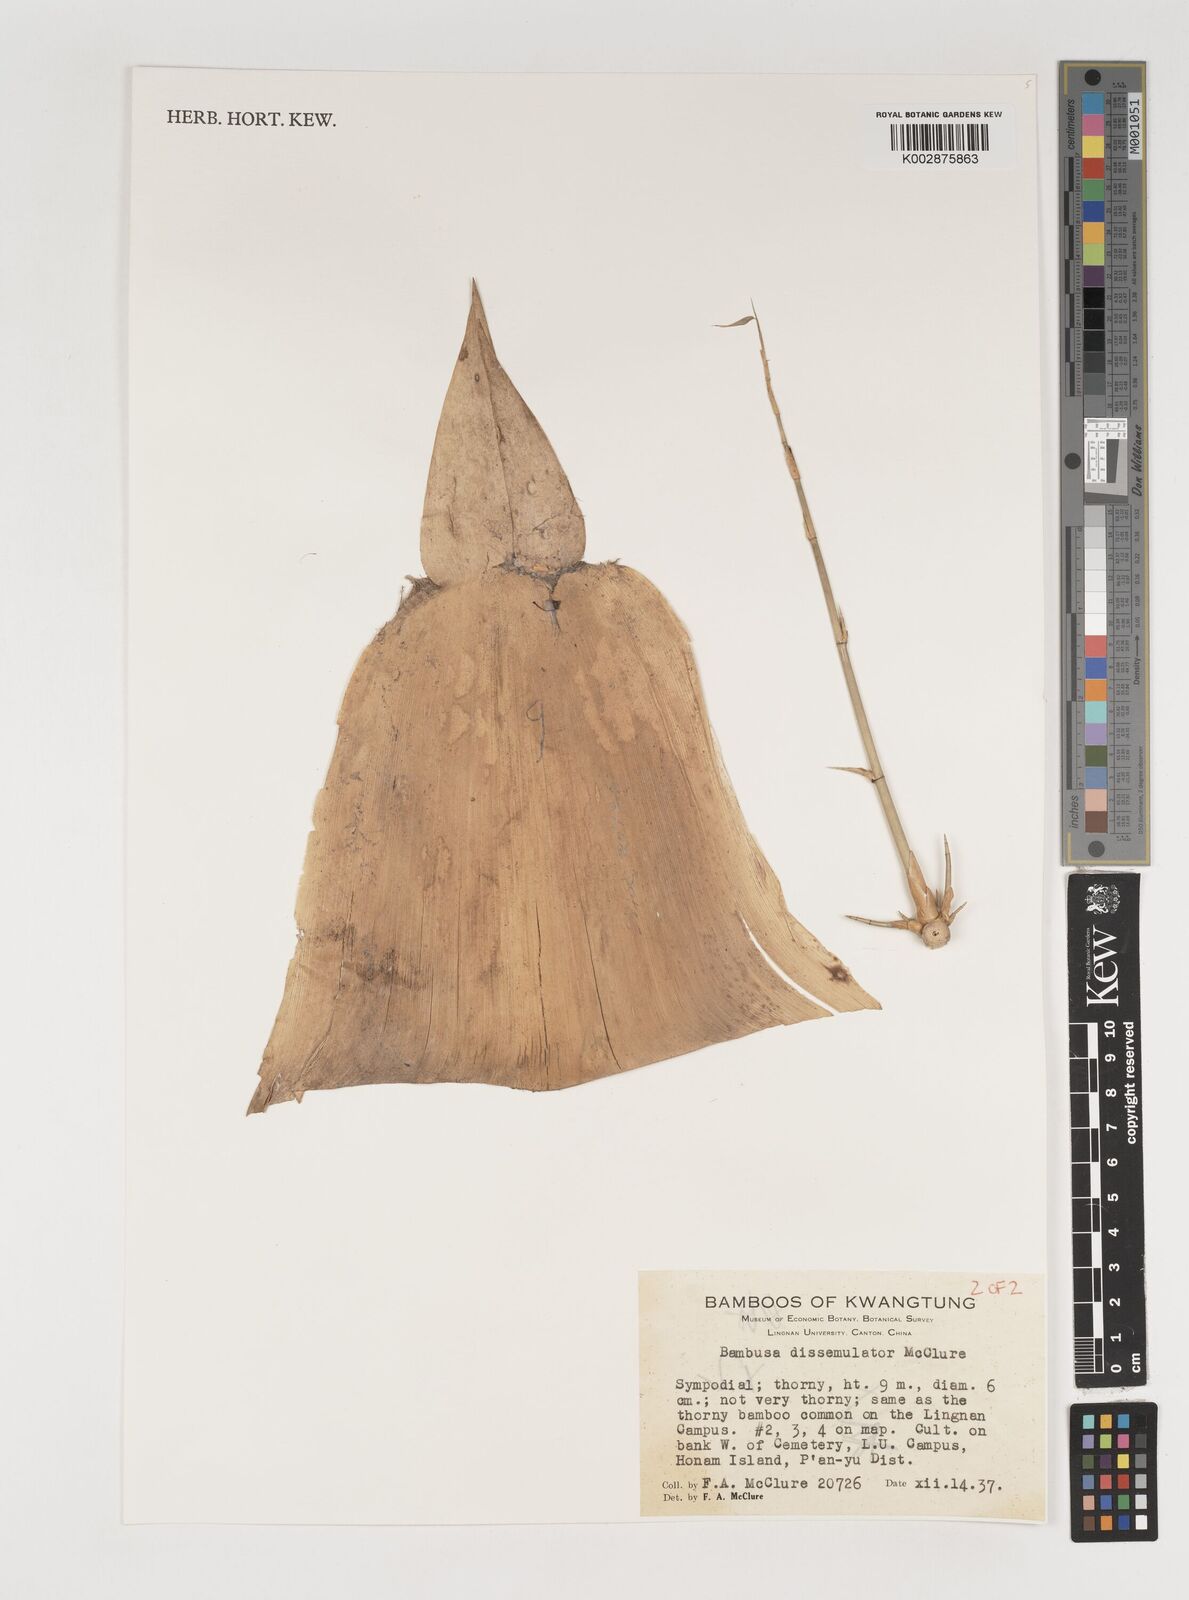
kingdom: Plantae
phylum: Tracheophyta
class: Liliopsida
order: Poales
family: Poaceae
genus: Bambusa
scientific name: Bambusa dissimulator
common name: Muddy bamboo
